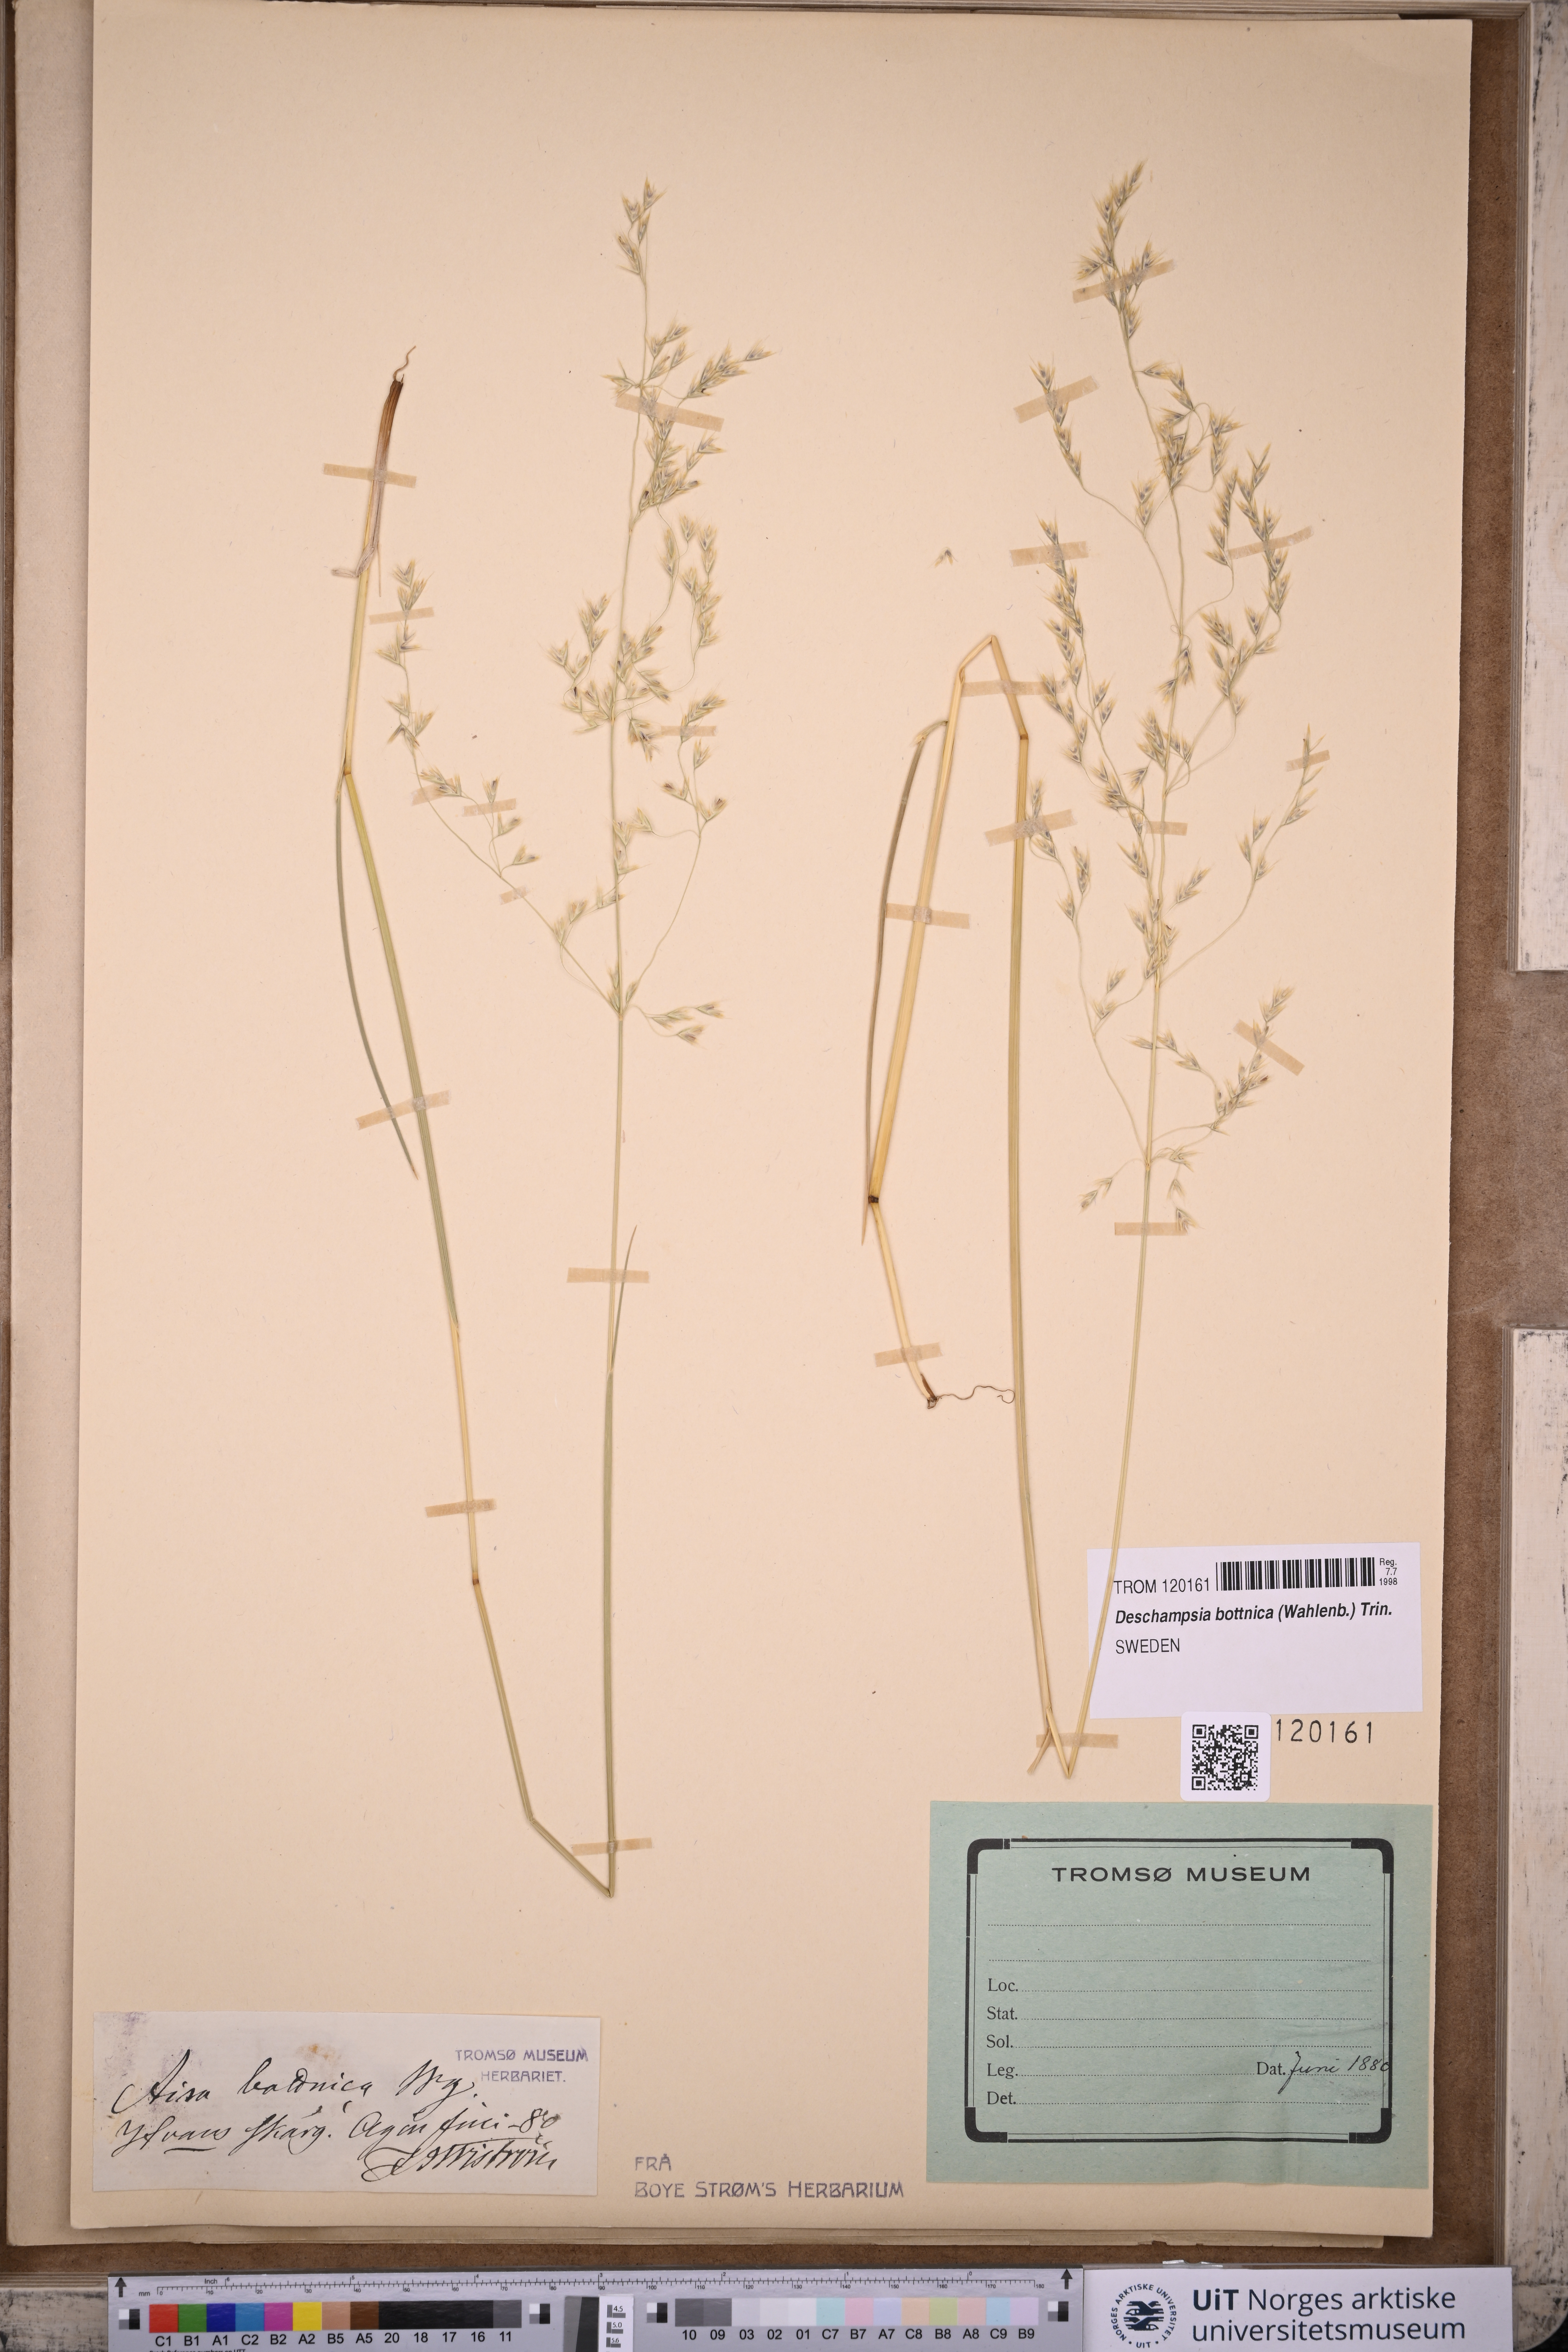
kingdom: Plantae
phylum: Tracheophyta
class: Liliopsida
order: Poales
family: Poaceae
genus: Deschampsia
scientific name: Deschampsia cespitosa
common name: Tufted hair-grass
